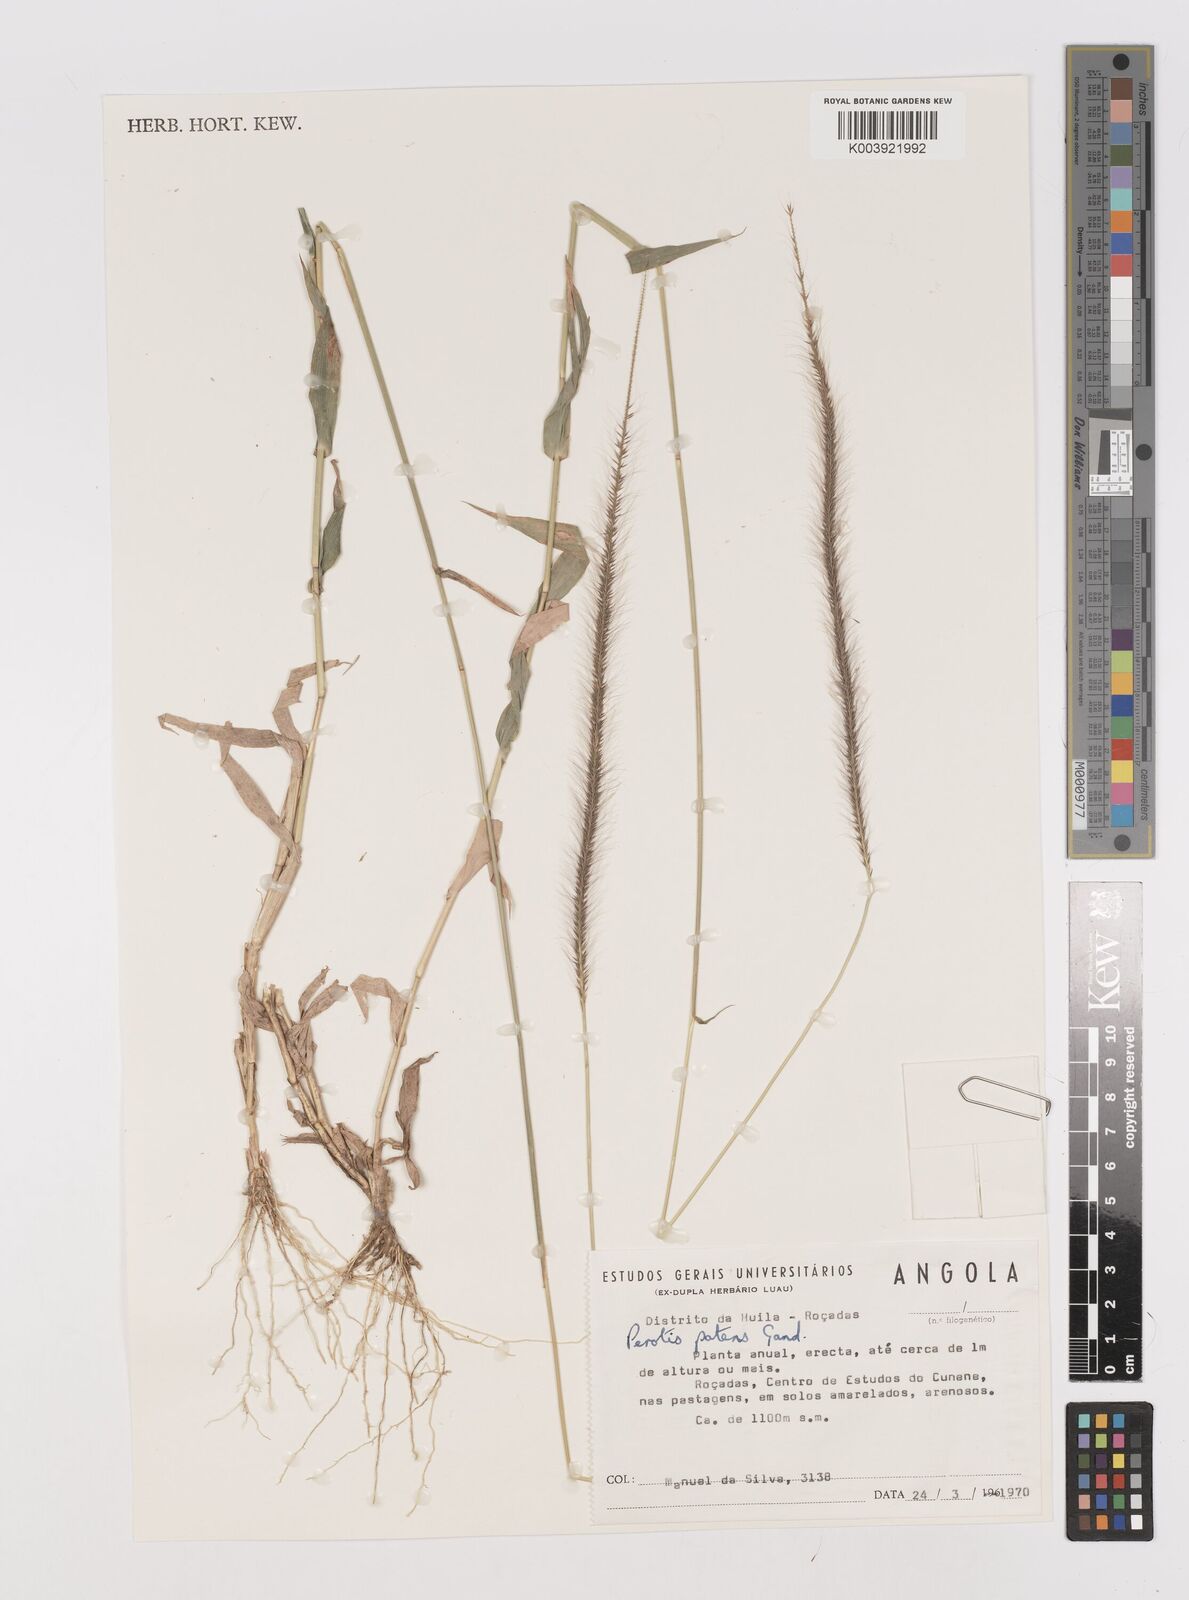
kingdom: Plantae
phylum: Tracheophyta
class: Liliopsida
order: Poales
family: Poaceae
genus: Perotis
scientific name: Perotis patens
